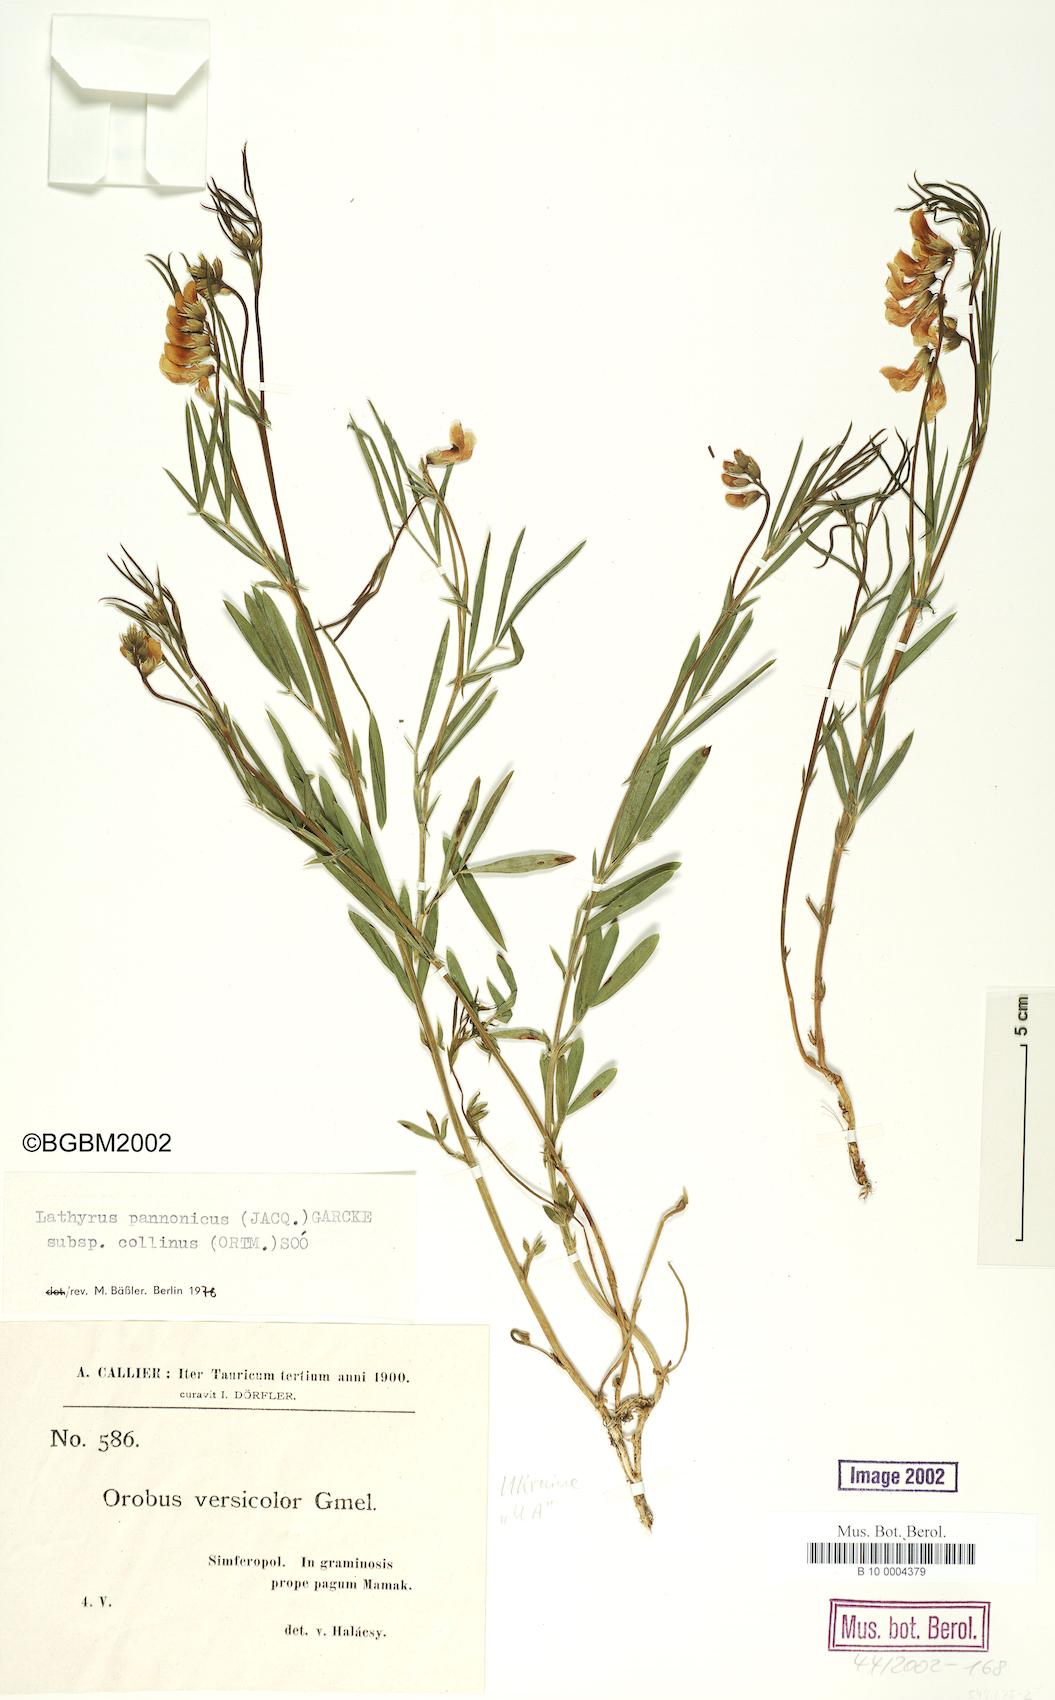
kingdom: Plantae
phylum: Tracheophyta
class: Magnoliopsida
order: Fabales
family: Fabaceae
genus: Lathyrus
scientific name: Lathyrus pannonicus
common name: Pea
